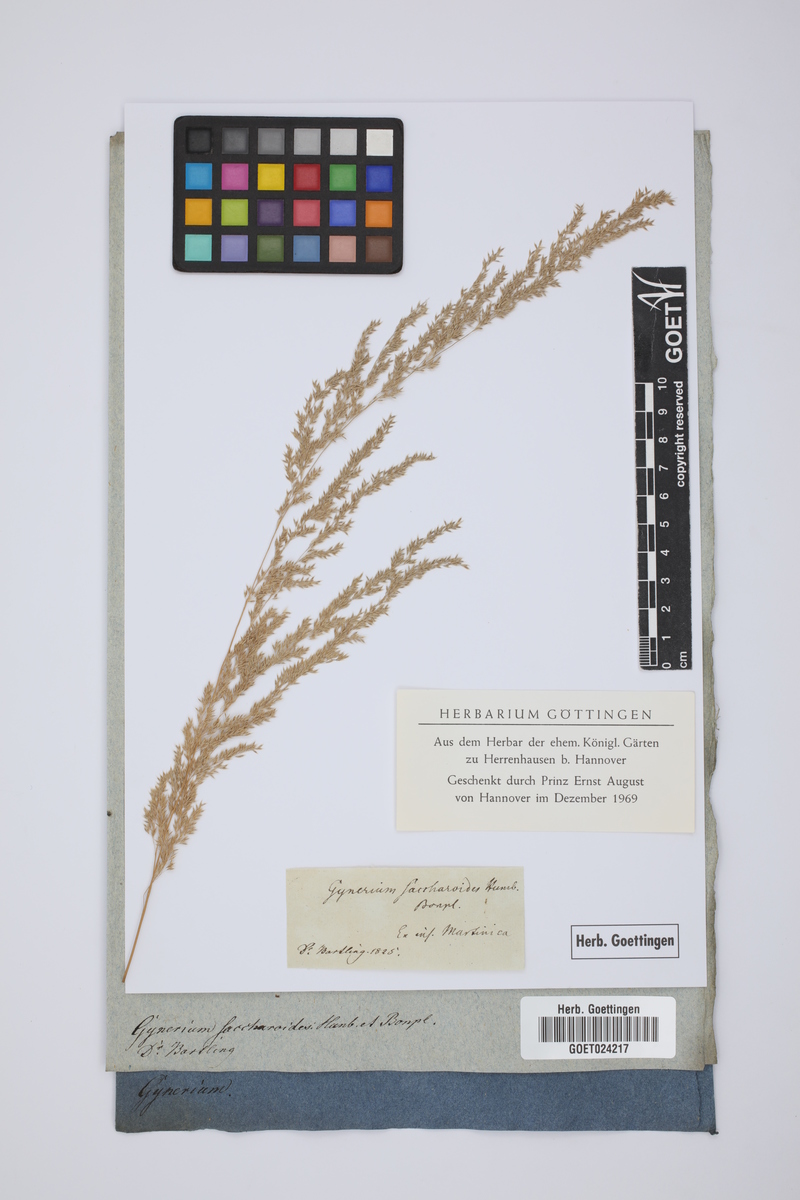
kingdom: Plantae
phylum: Tracheophyta
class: Liliopsida
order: Poales
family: Poaceae
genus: Gynerium
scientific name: Gynerium sagittatum
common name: Wild cane
